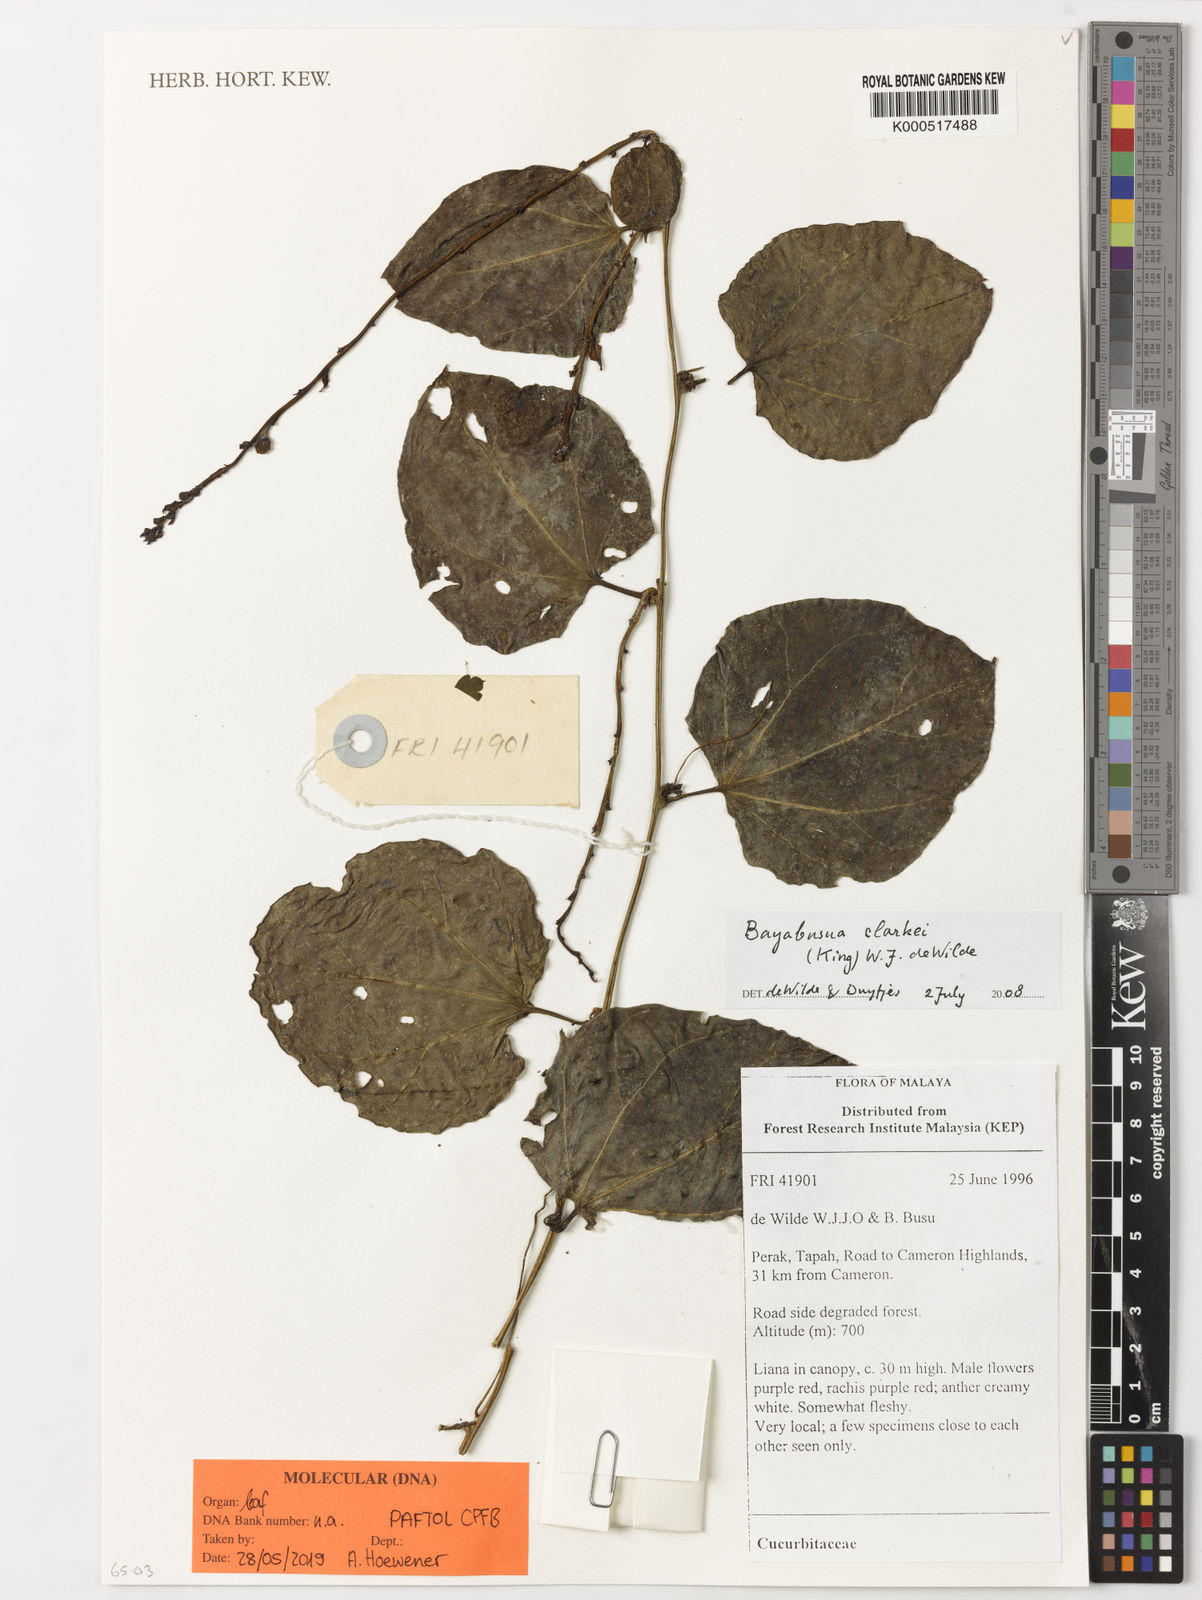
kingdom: Plantae
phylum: Tracheophyta
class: Magnoliopsida
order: Cucurbitales
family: Cucurbitaceae
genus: Baijiania
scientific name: Baijiania borneensis
